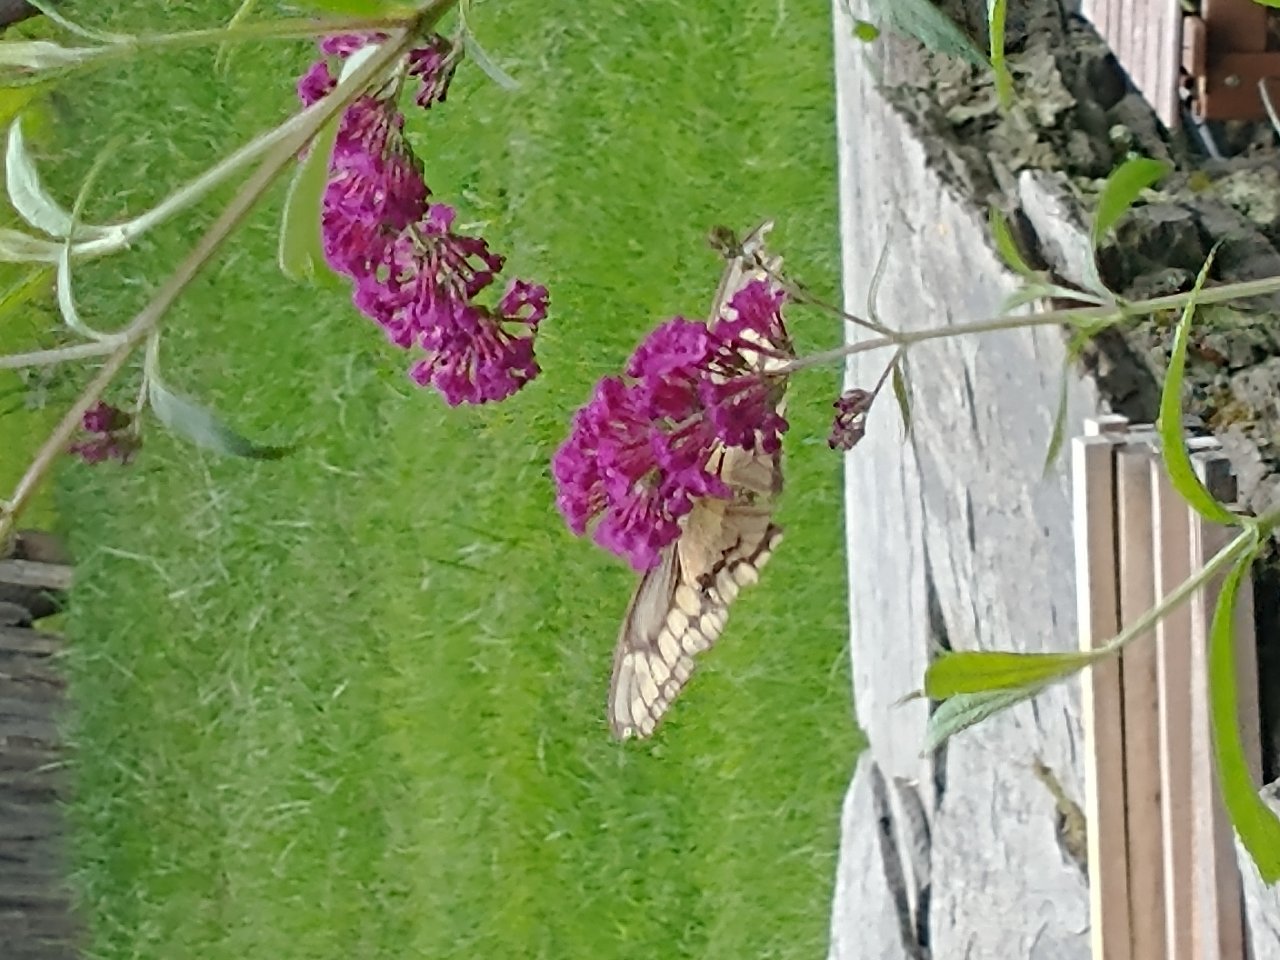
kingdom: Animalia
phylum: Arthropoda
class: Insecta
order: Lepidoptera
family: Papilionidae
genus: Papilio
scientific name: Papilio cresphontes
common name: Eastern Giant Swallowtail
